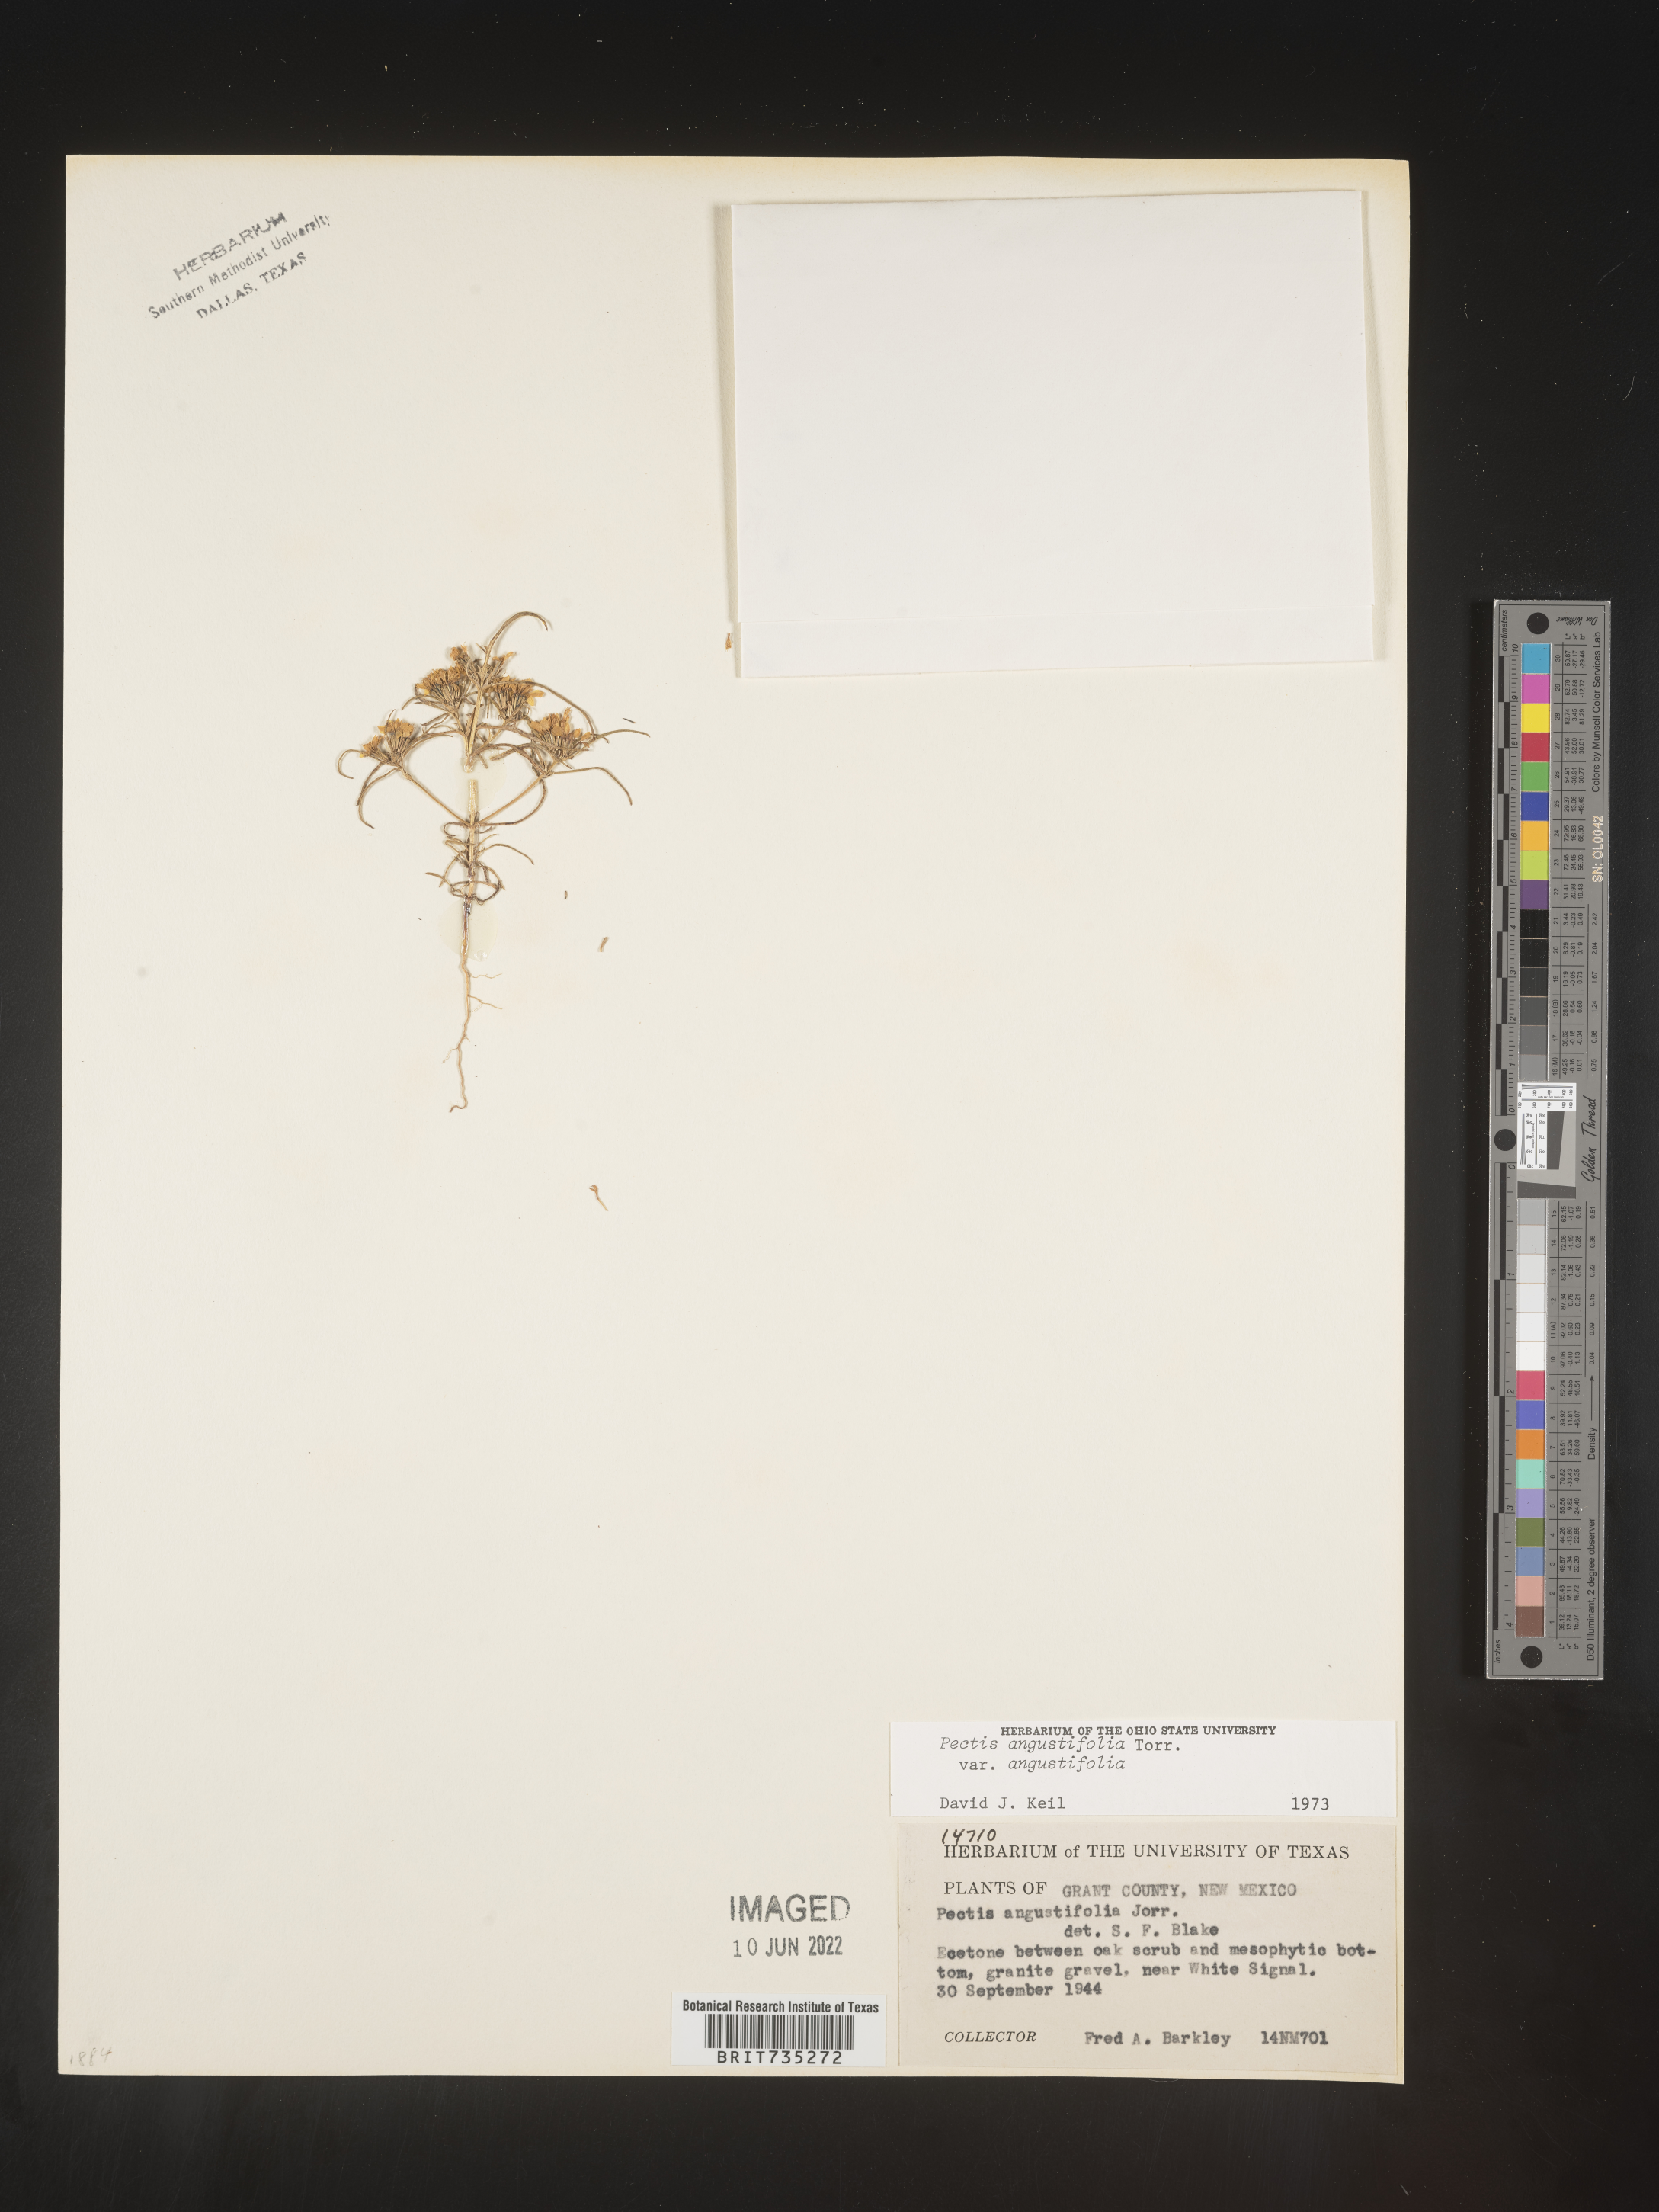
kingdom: Plantae
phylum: Tracheophyta
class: Magnoliopsida
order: Asterales
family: Asteraceae
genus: Pectis
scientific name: Pectis angustifolia
